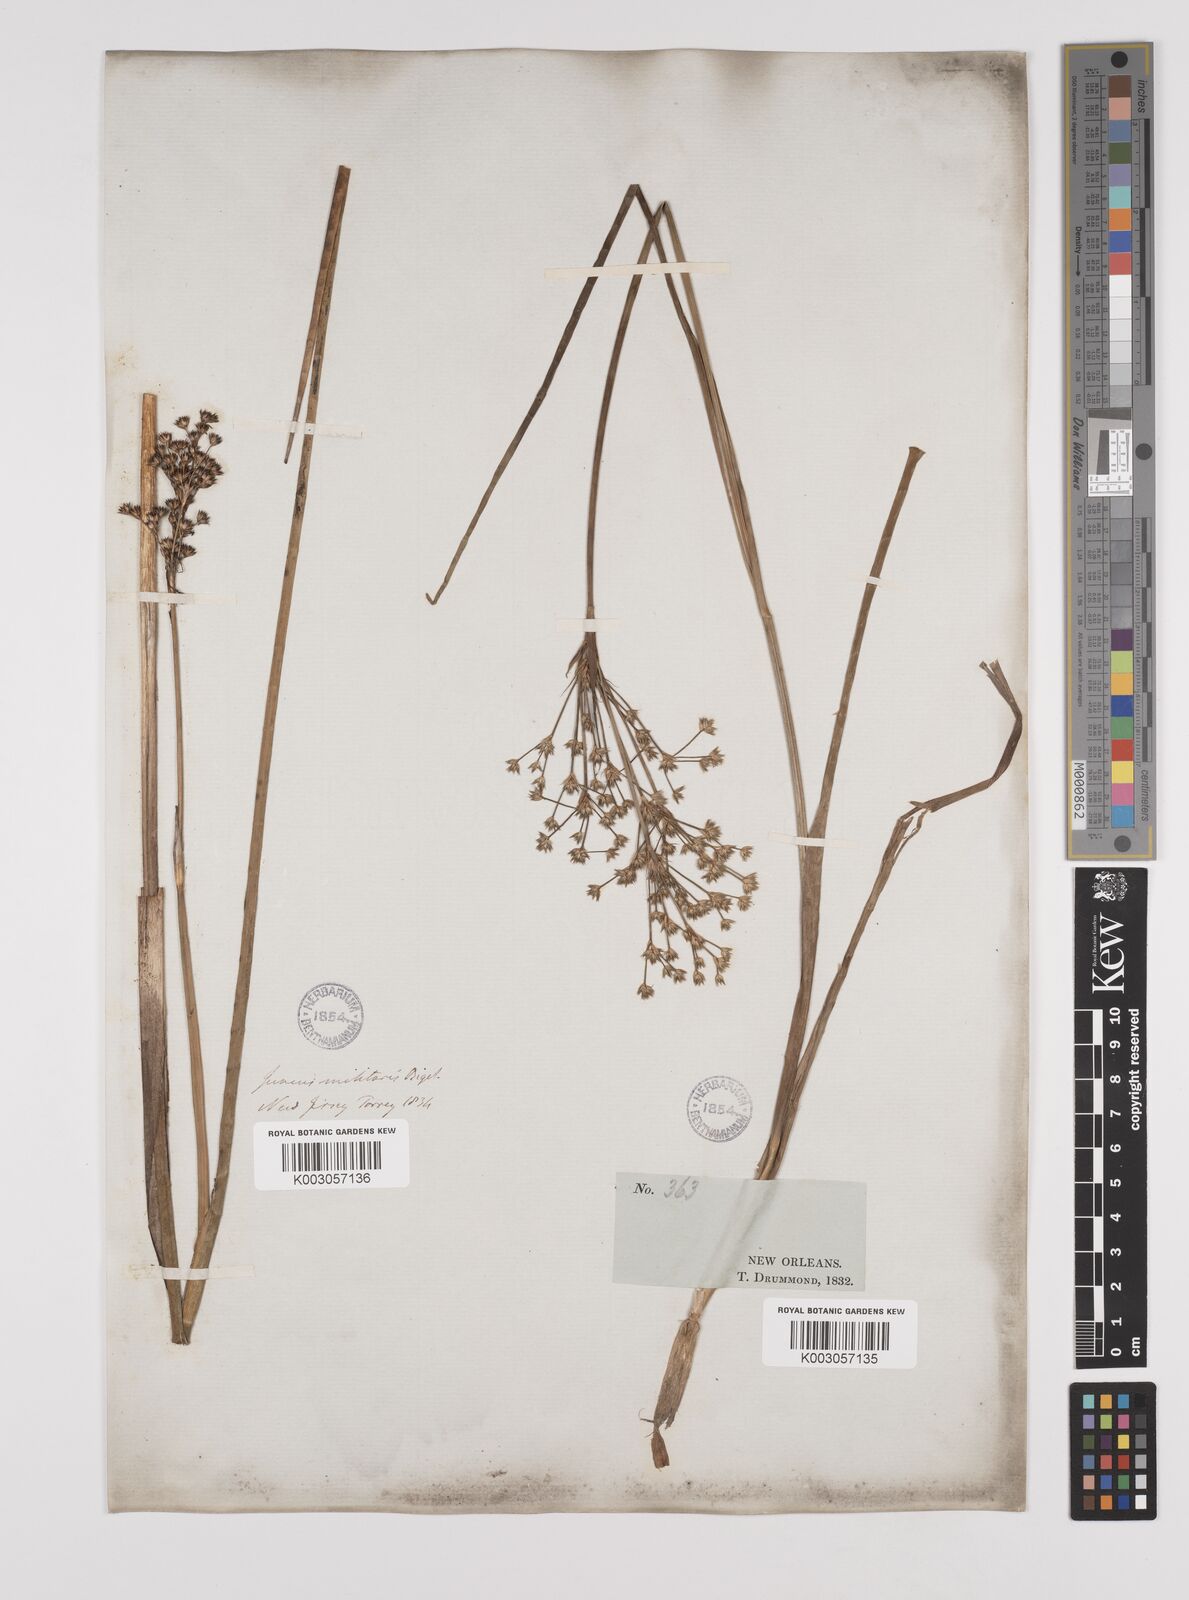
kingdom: Plantae
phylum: Tracheophyta
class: Liliopsida
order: Poales
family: Juncaceae
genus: Juncus
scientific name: Juncus militaris
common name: Bayonet rush
